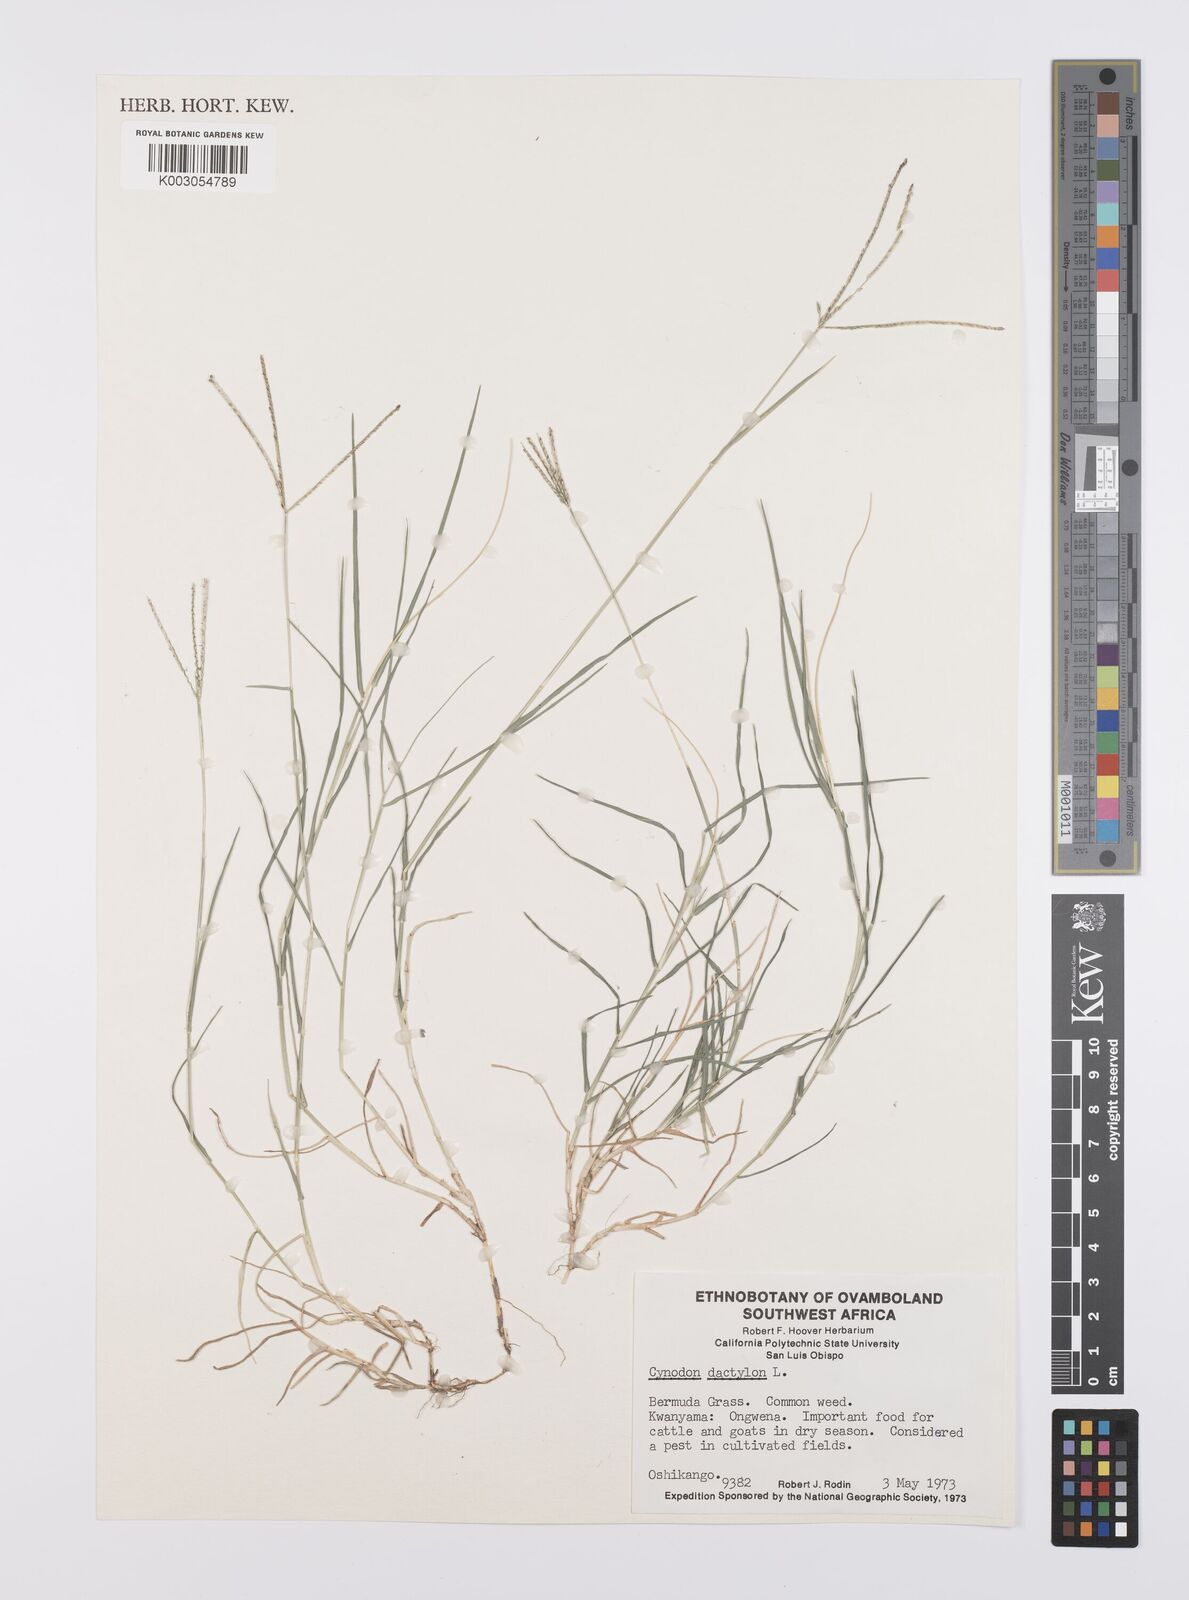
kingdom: Plantae
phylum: Tracheophyta
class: Liliopsida
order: Poales
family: Poaceae
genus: Cynodon
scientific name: Cynodon dactylon
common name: Bermuda grass
